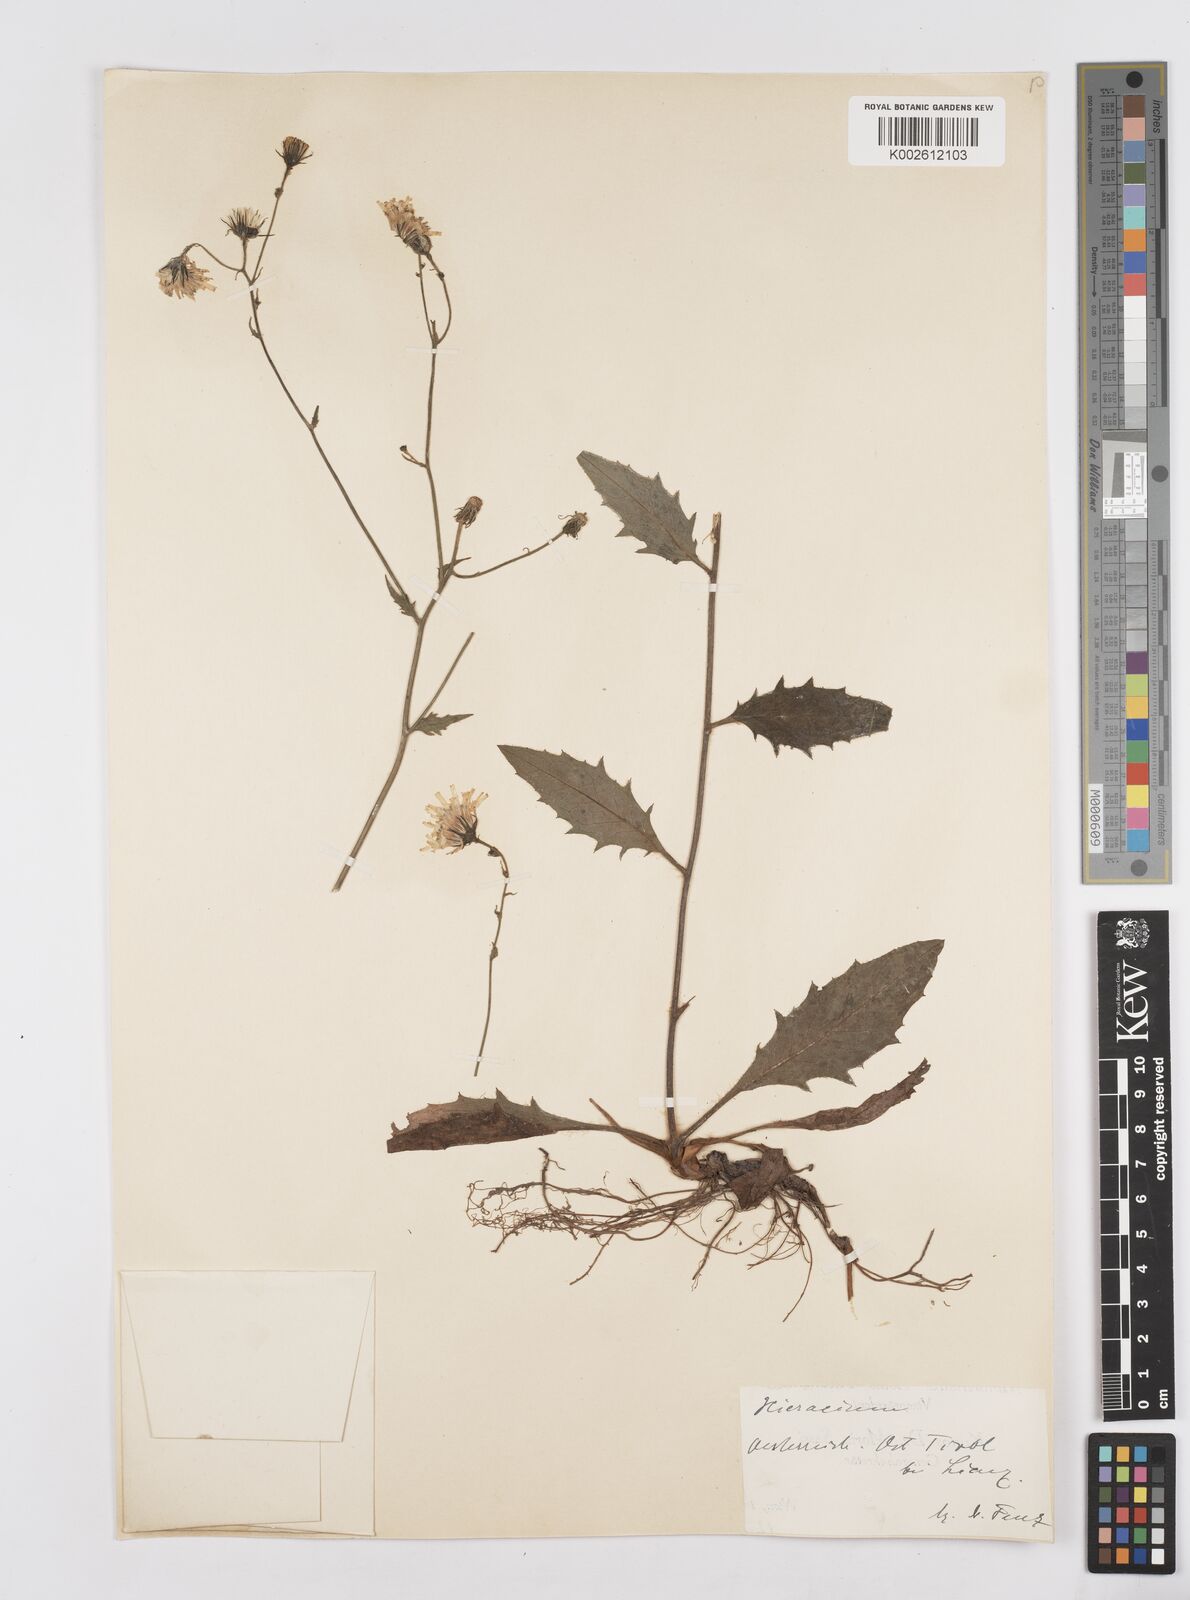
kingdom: Plantae
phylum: Tracheophyta
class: Magnoliopsida
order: Asterales
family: Asteraceae
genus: Hieracium
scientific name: Hieracium
